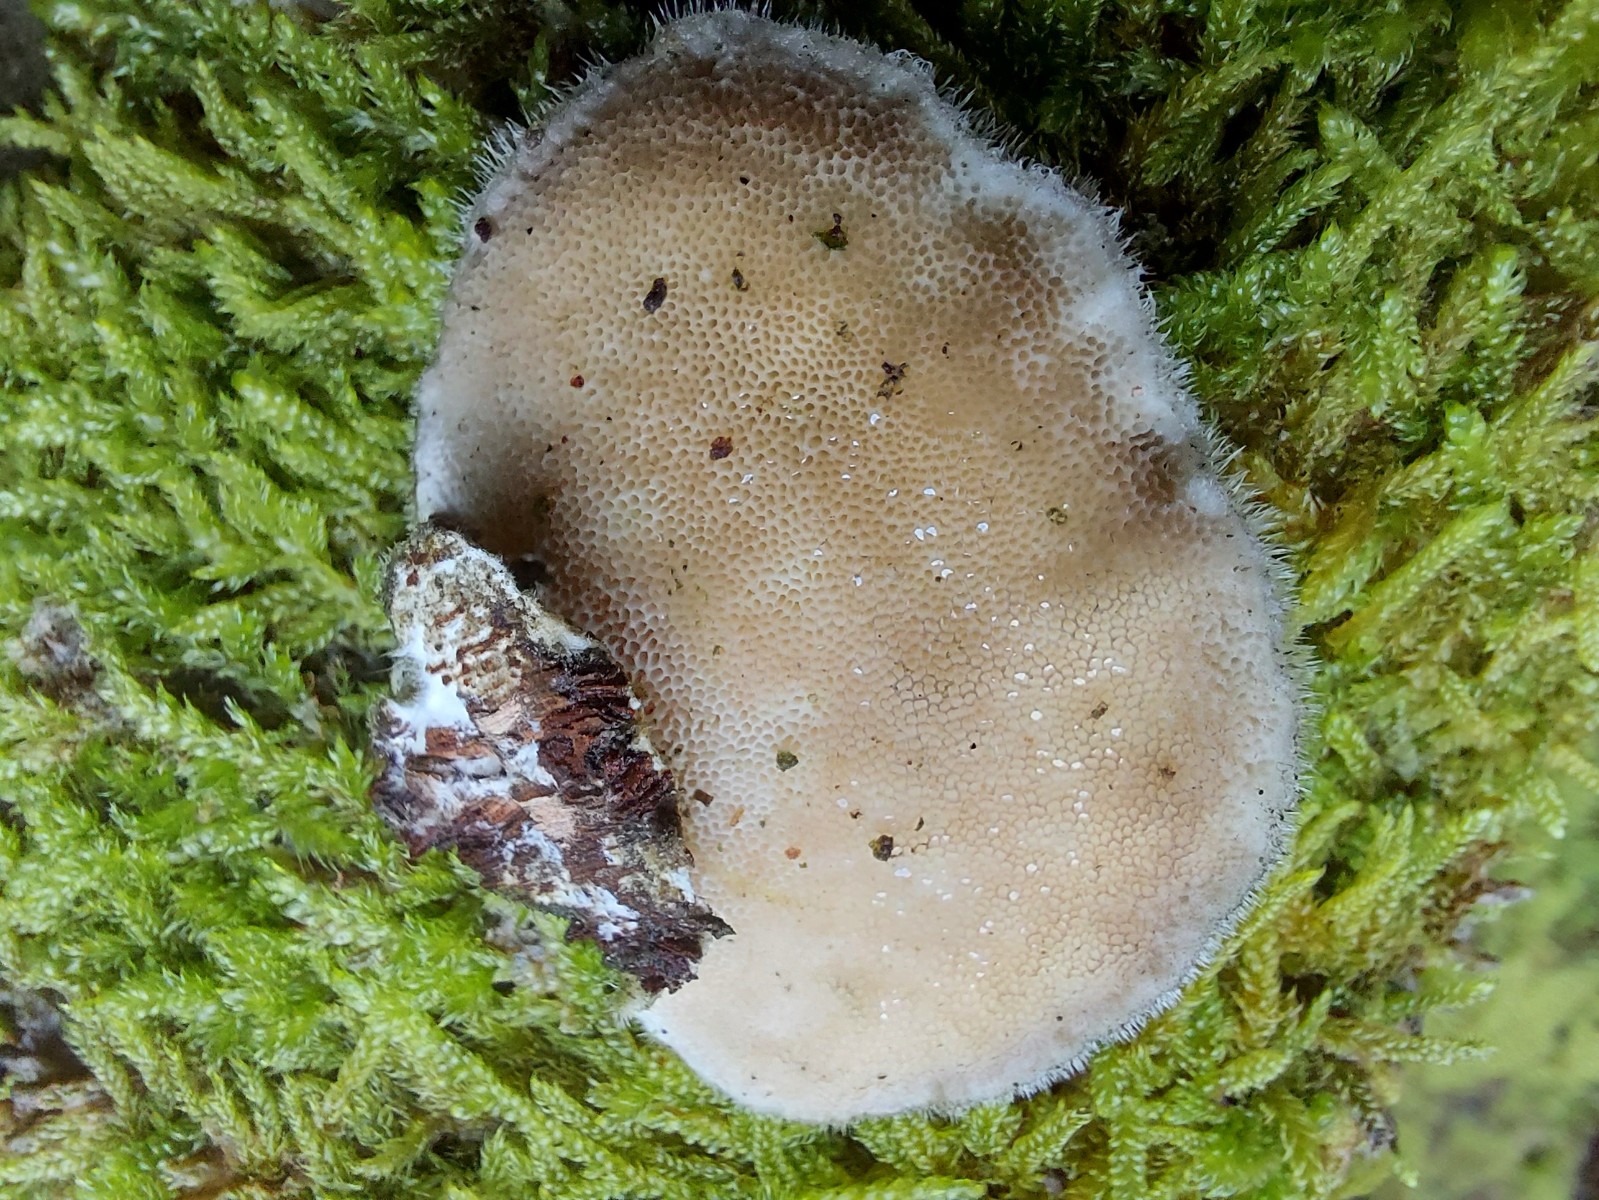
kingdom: Fungi
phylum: Basidiomycota
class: Agaricomycetes
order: Polyporales
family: Polyporaceae
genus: Trametes
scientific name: Trametes hirsuta
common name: håret læderporesvamp
